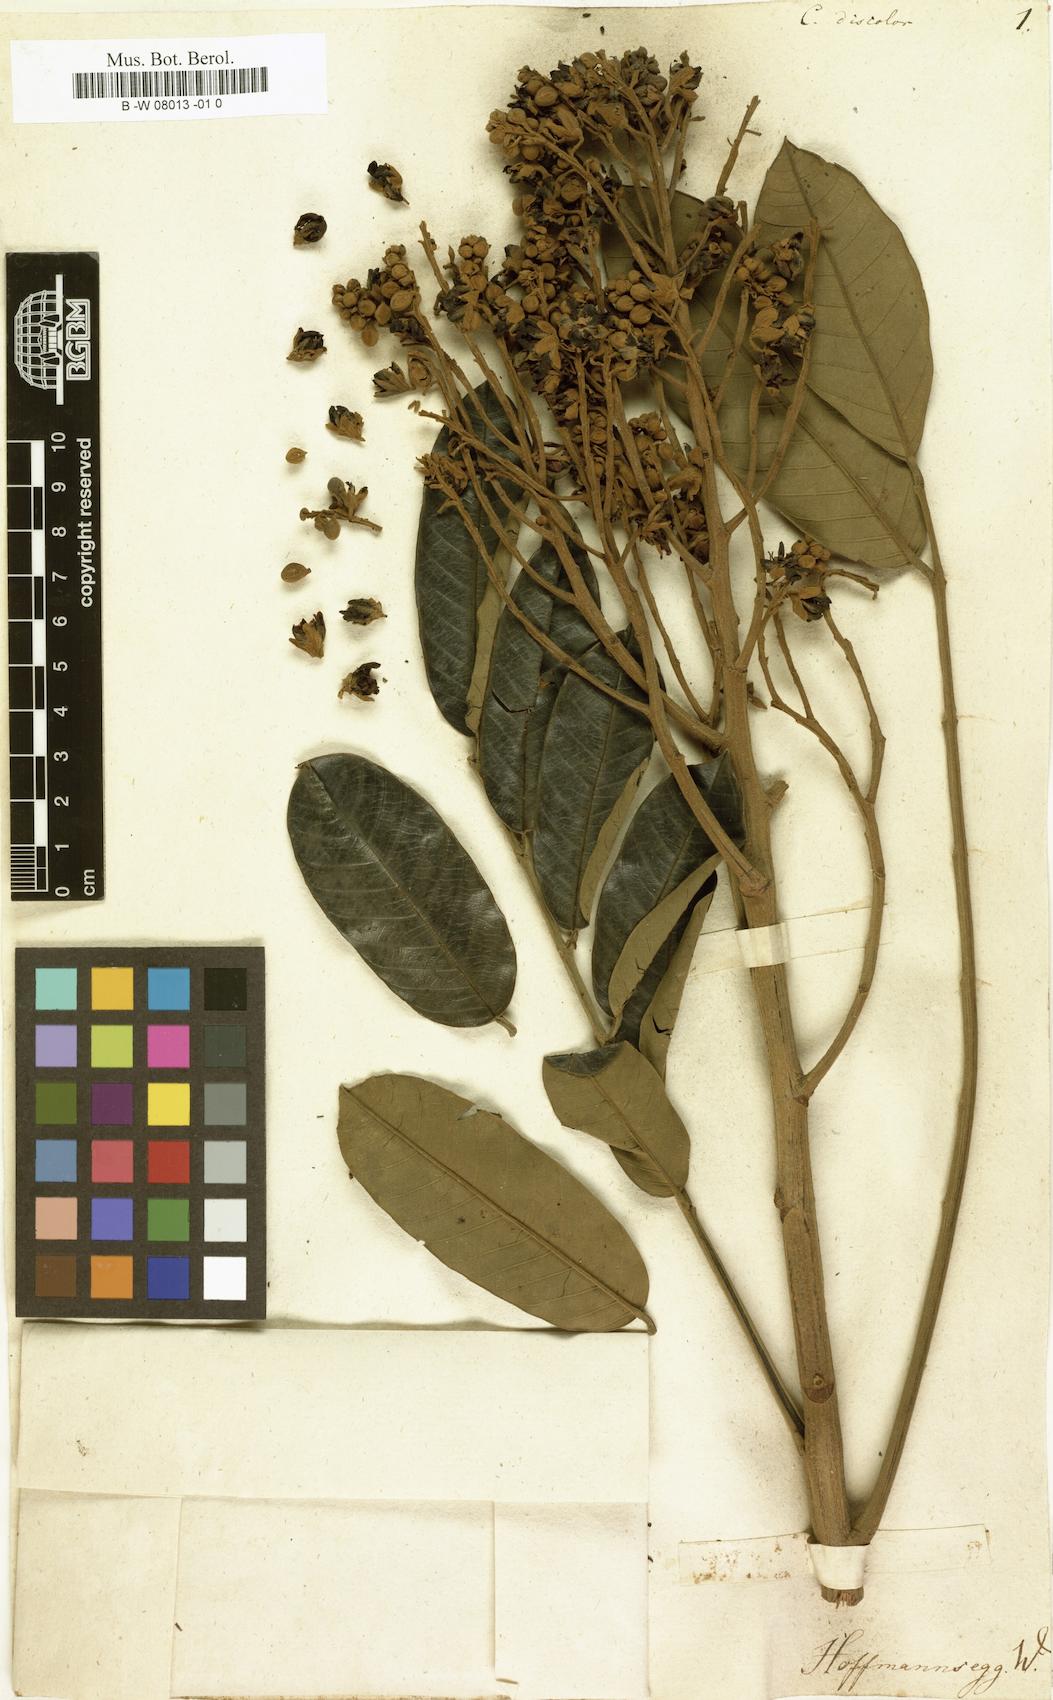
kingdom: Plantae
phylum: Tracheophyta
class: Magnoliopsida
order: Fabales
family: Fabaceae
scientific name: Fabaceae
